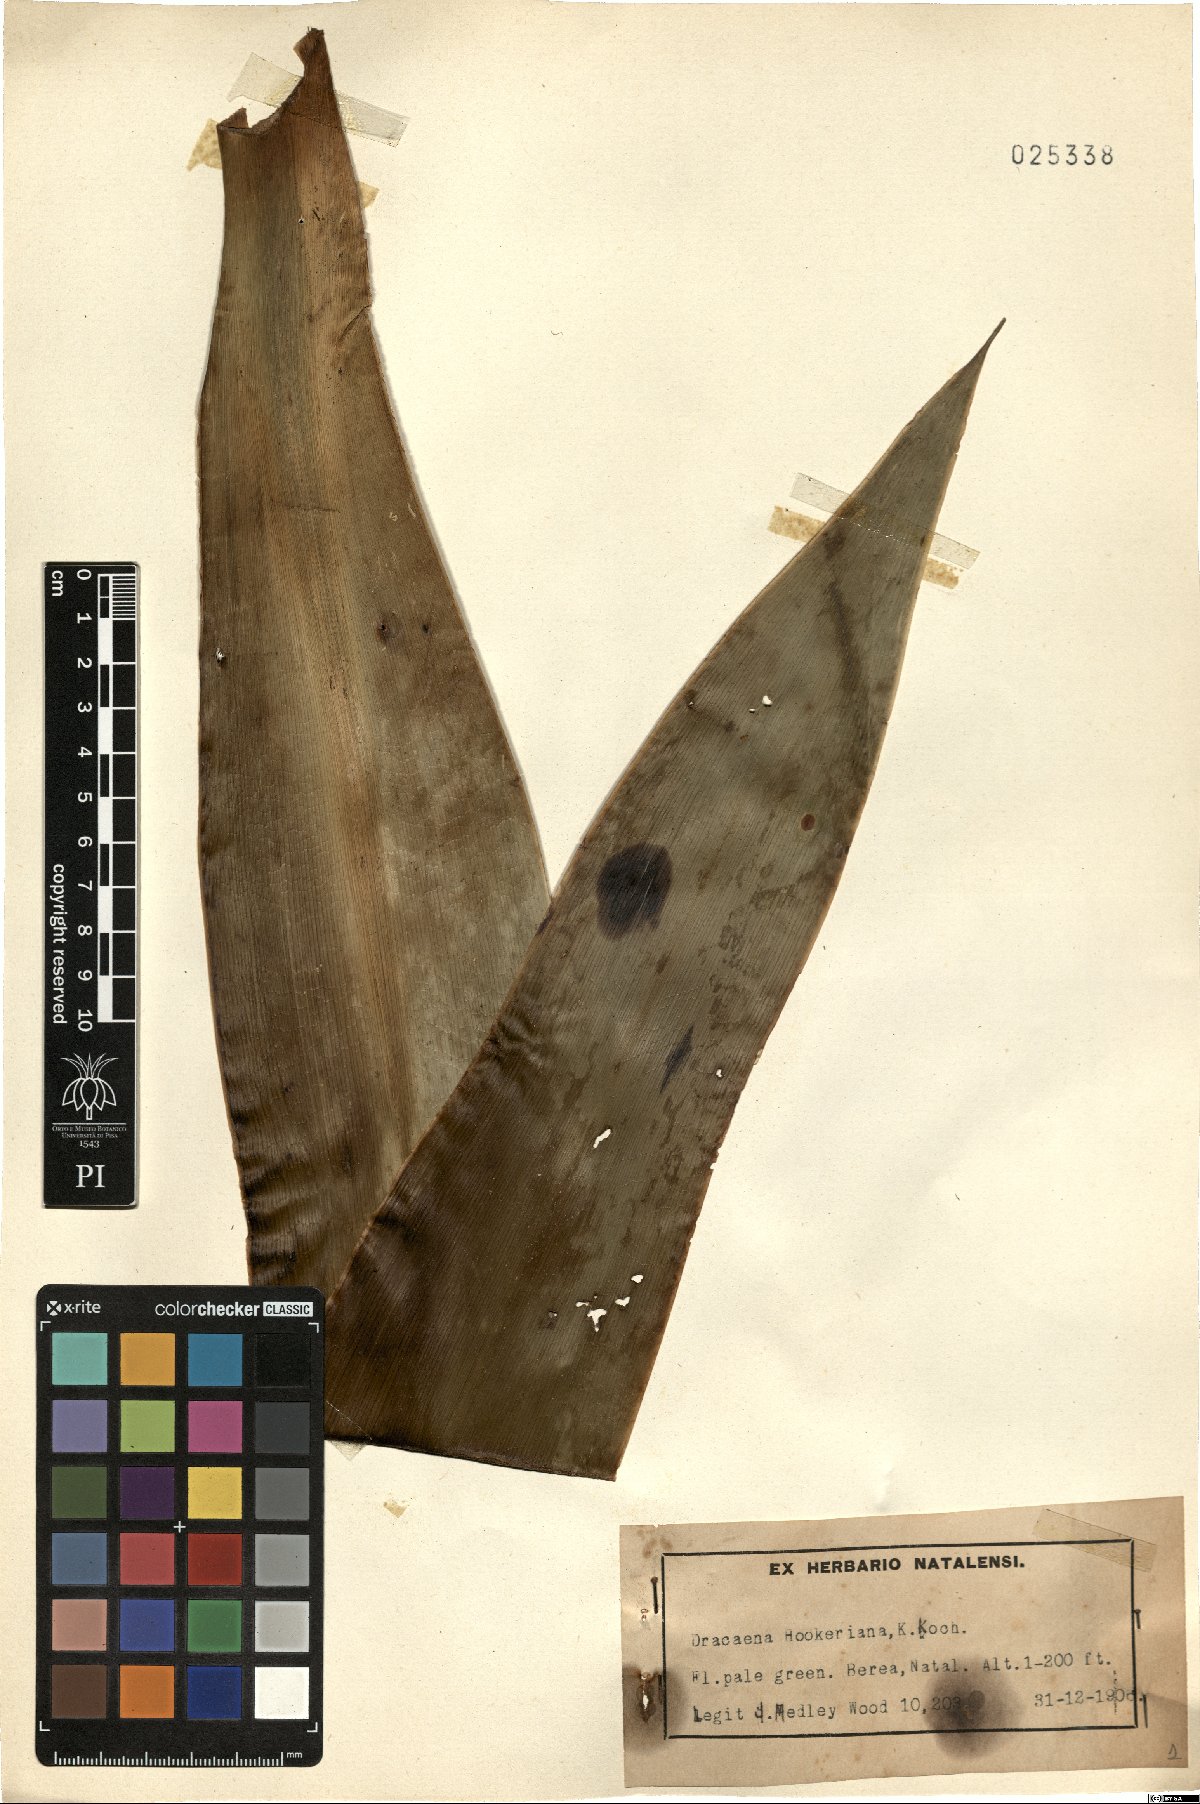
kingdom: Plantae
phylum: Tracheophyta
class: Liliopsida
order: Asparagales
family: Asparagaceae
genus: Dracaena
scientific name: Dracaena aletriformis
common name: Large-leaved dragon tree
